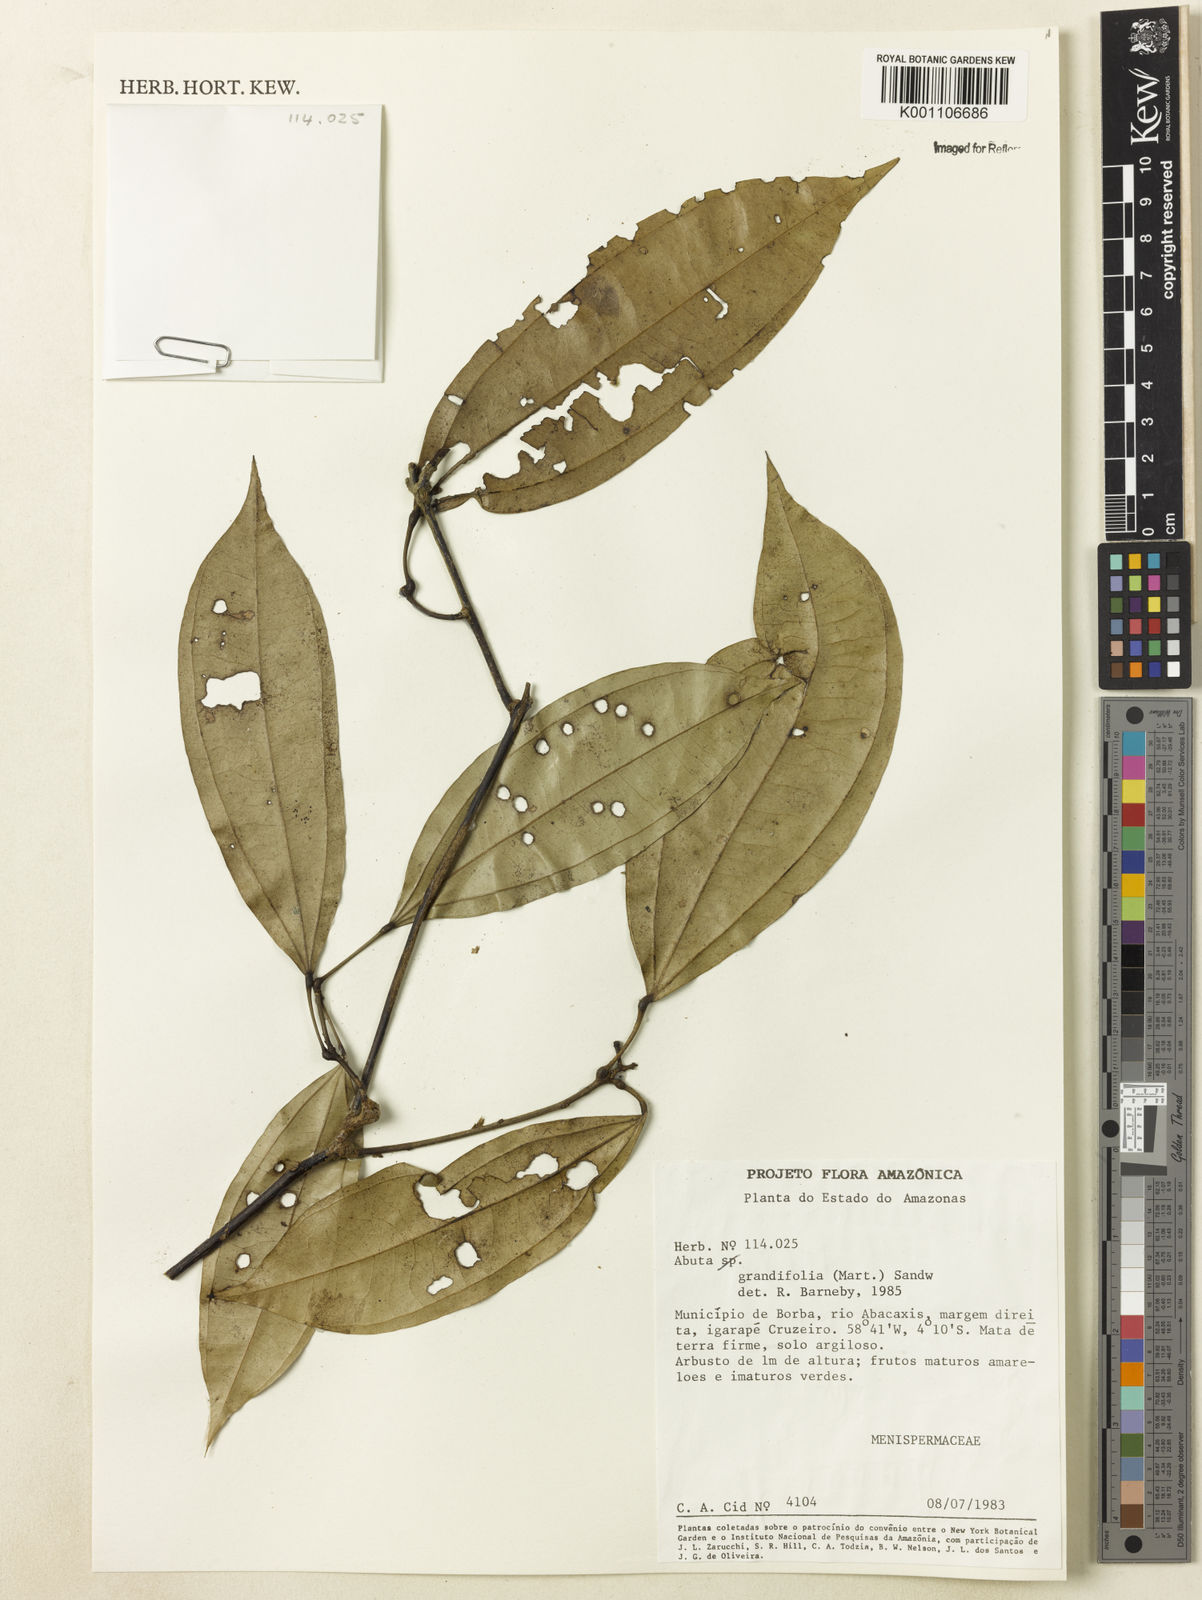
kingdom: Plantae
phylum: Tracheophyta
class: Magnoliopsida
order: Ranunculales
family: Menispermaceae
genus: Abuta
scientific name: Abuta grandifolia
